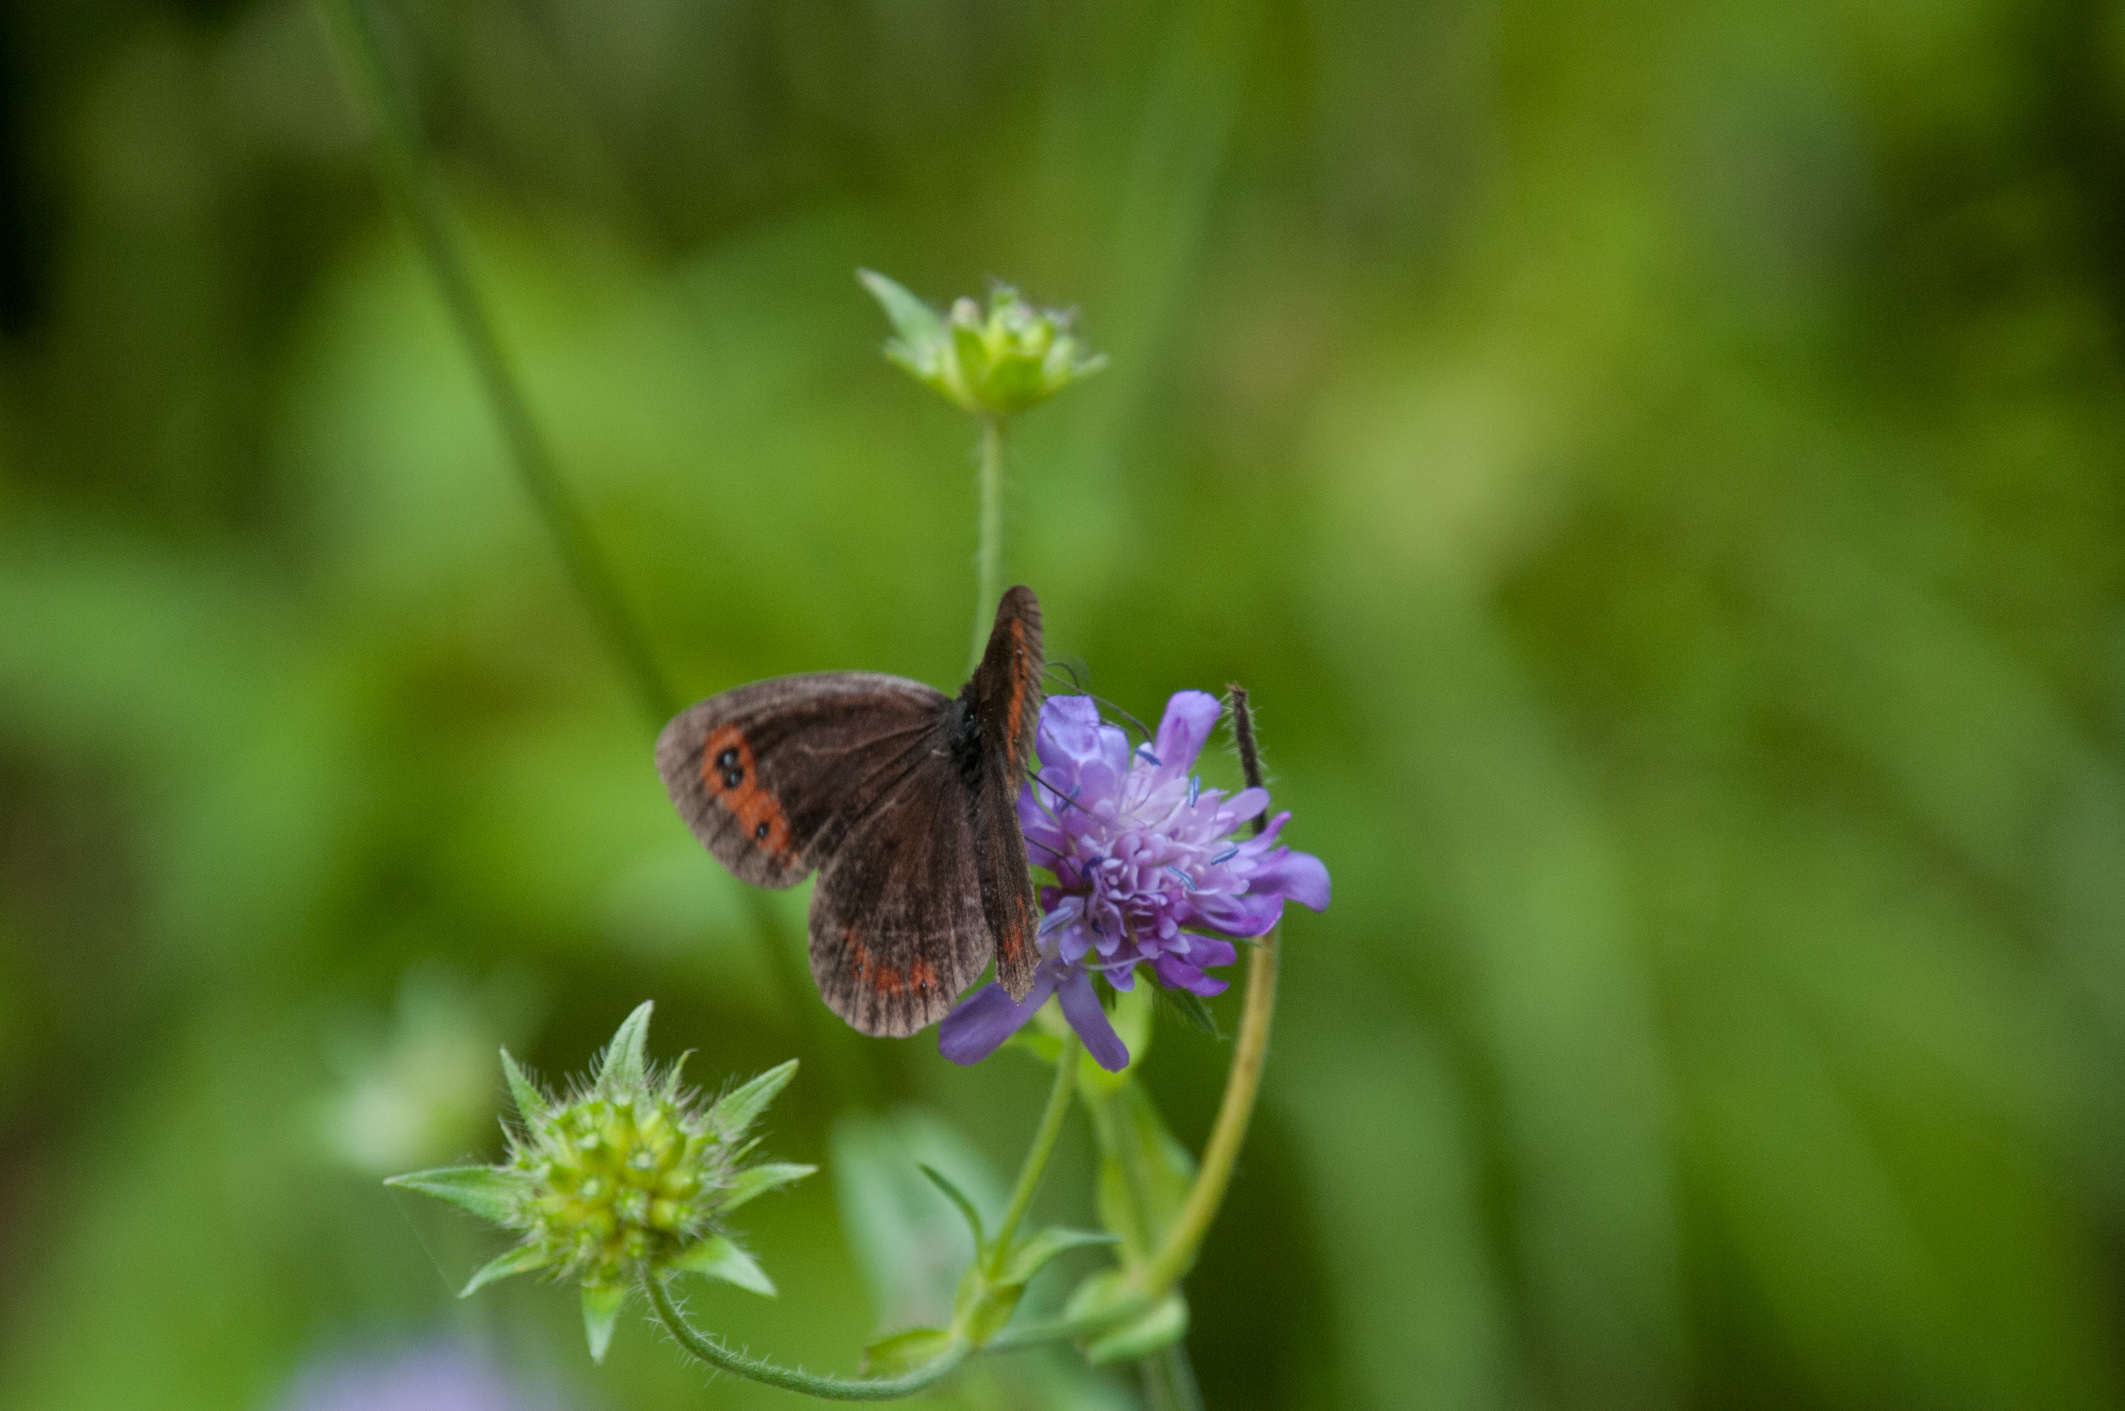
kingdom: Animalia
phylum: Arthropoda
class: Insecta
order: Lepidoptera
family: Nymphalidae
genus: Erebia
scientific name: Erebia meolans
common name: Piedmont ringlet
